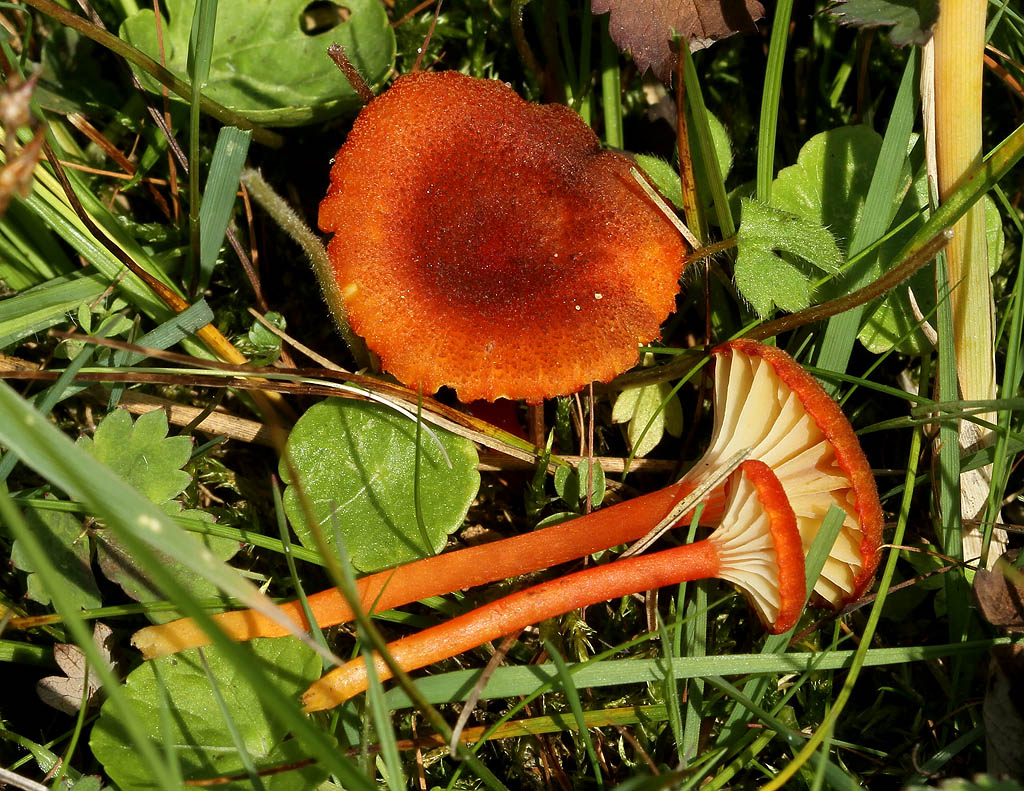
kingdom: Fungi
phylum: Basidiomycota
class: Agaricomycetes
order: Agaricales
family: Hygrophoraceae
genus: Hygrocybe
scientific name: Hygrocybe coccineocrenata
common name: tørvemos-vokshat
